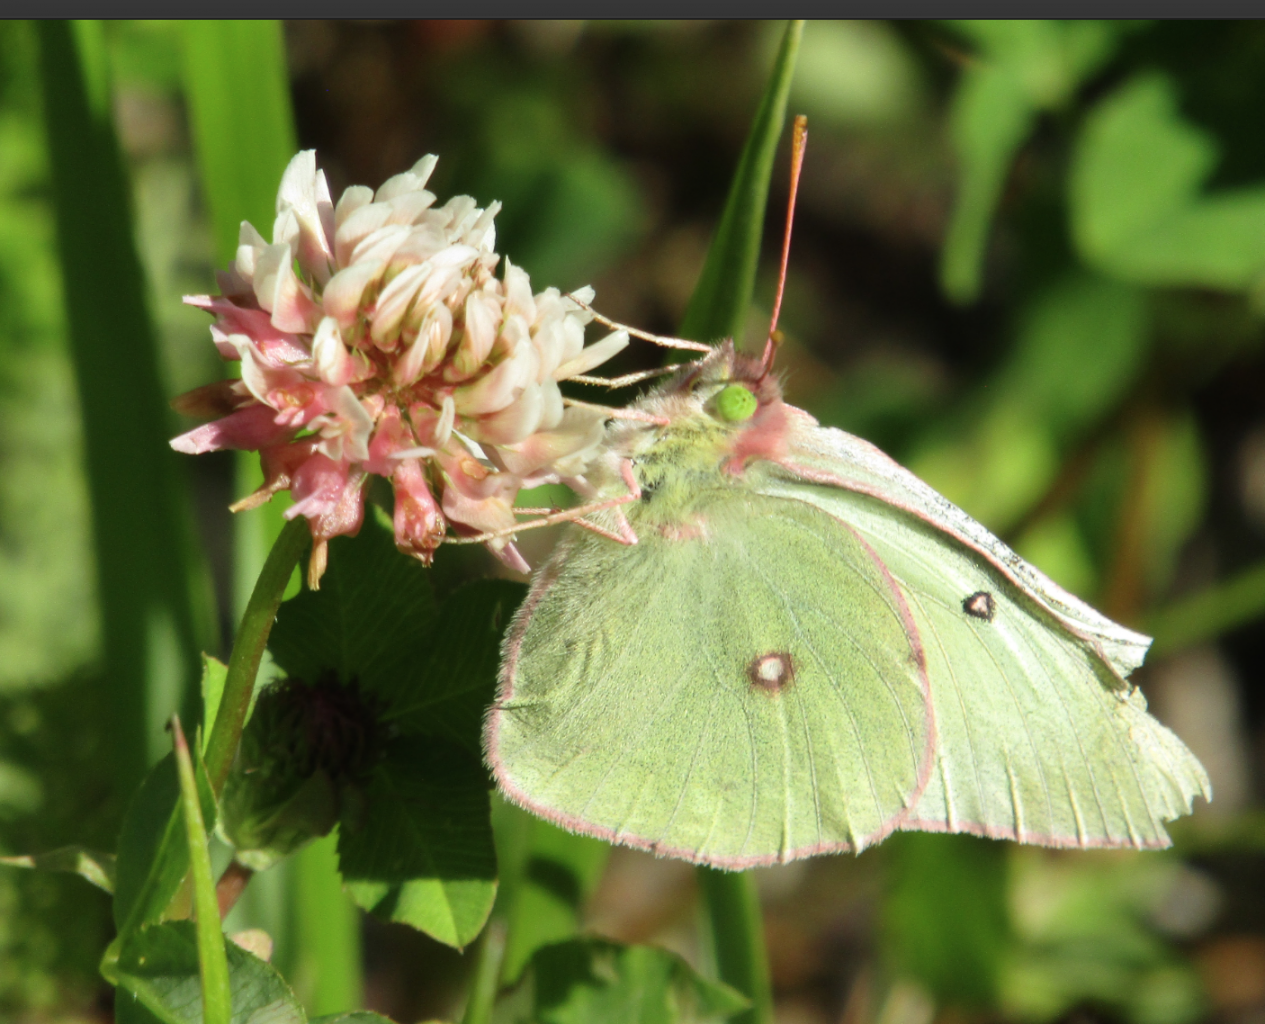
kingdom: Animalia
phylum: Arthropoda
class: Insecta
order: Lepidoptera
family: Pieridae
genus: Colias
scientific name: Colias
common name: Clouded Yellows
